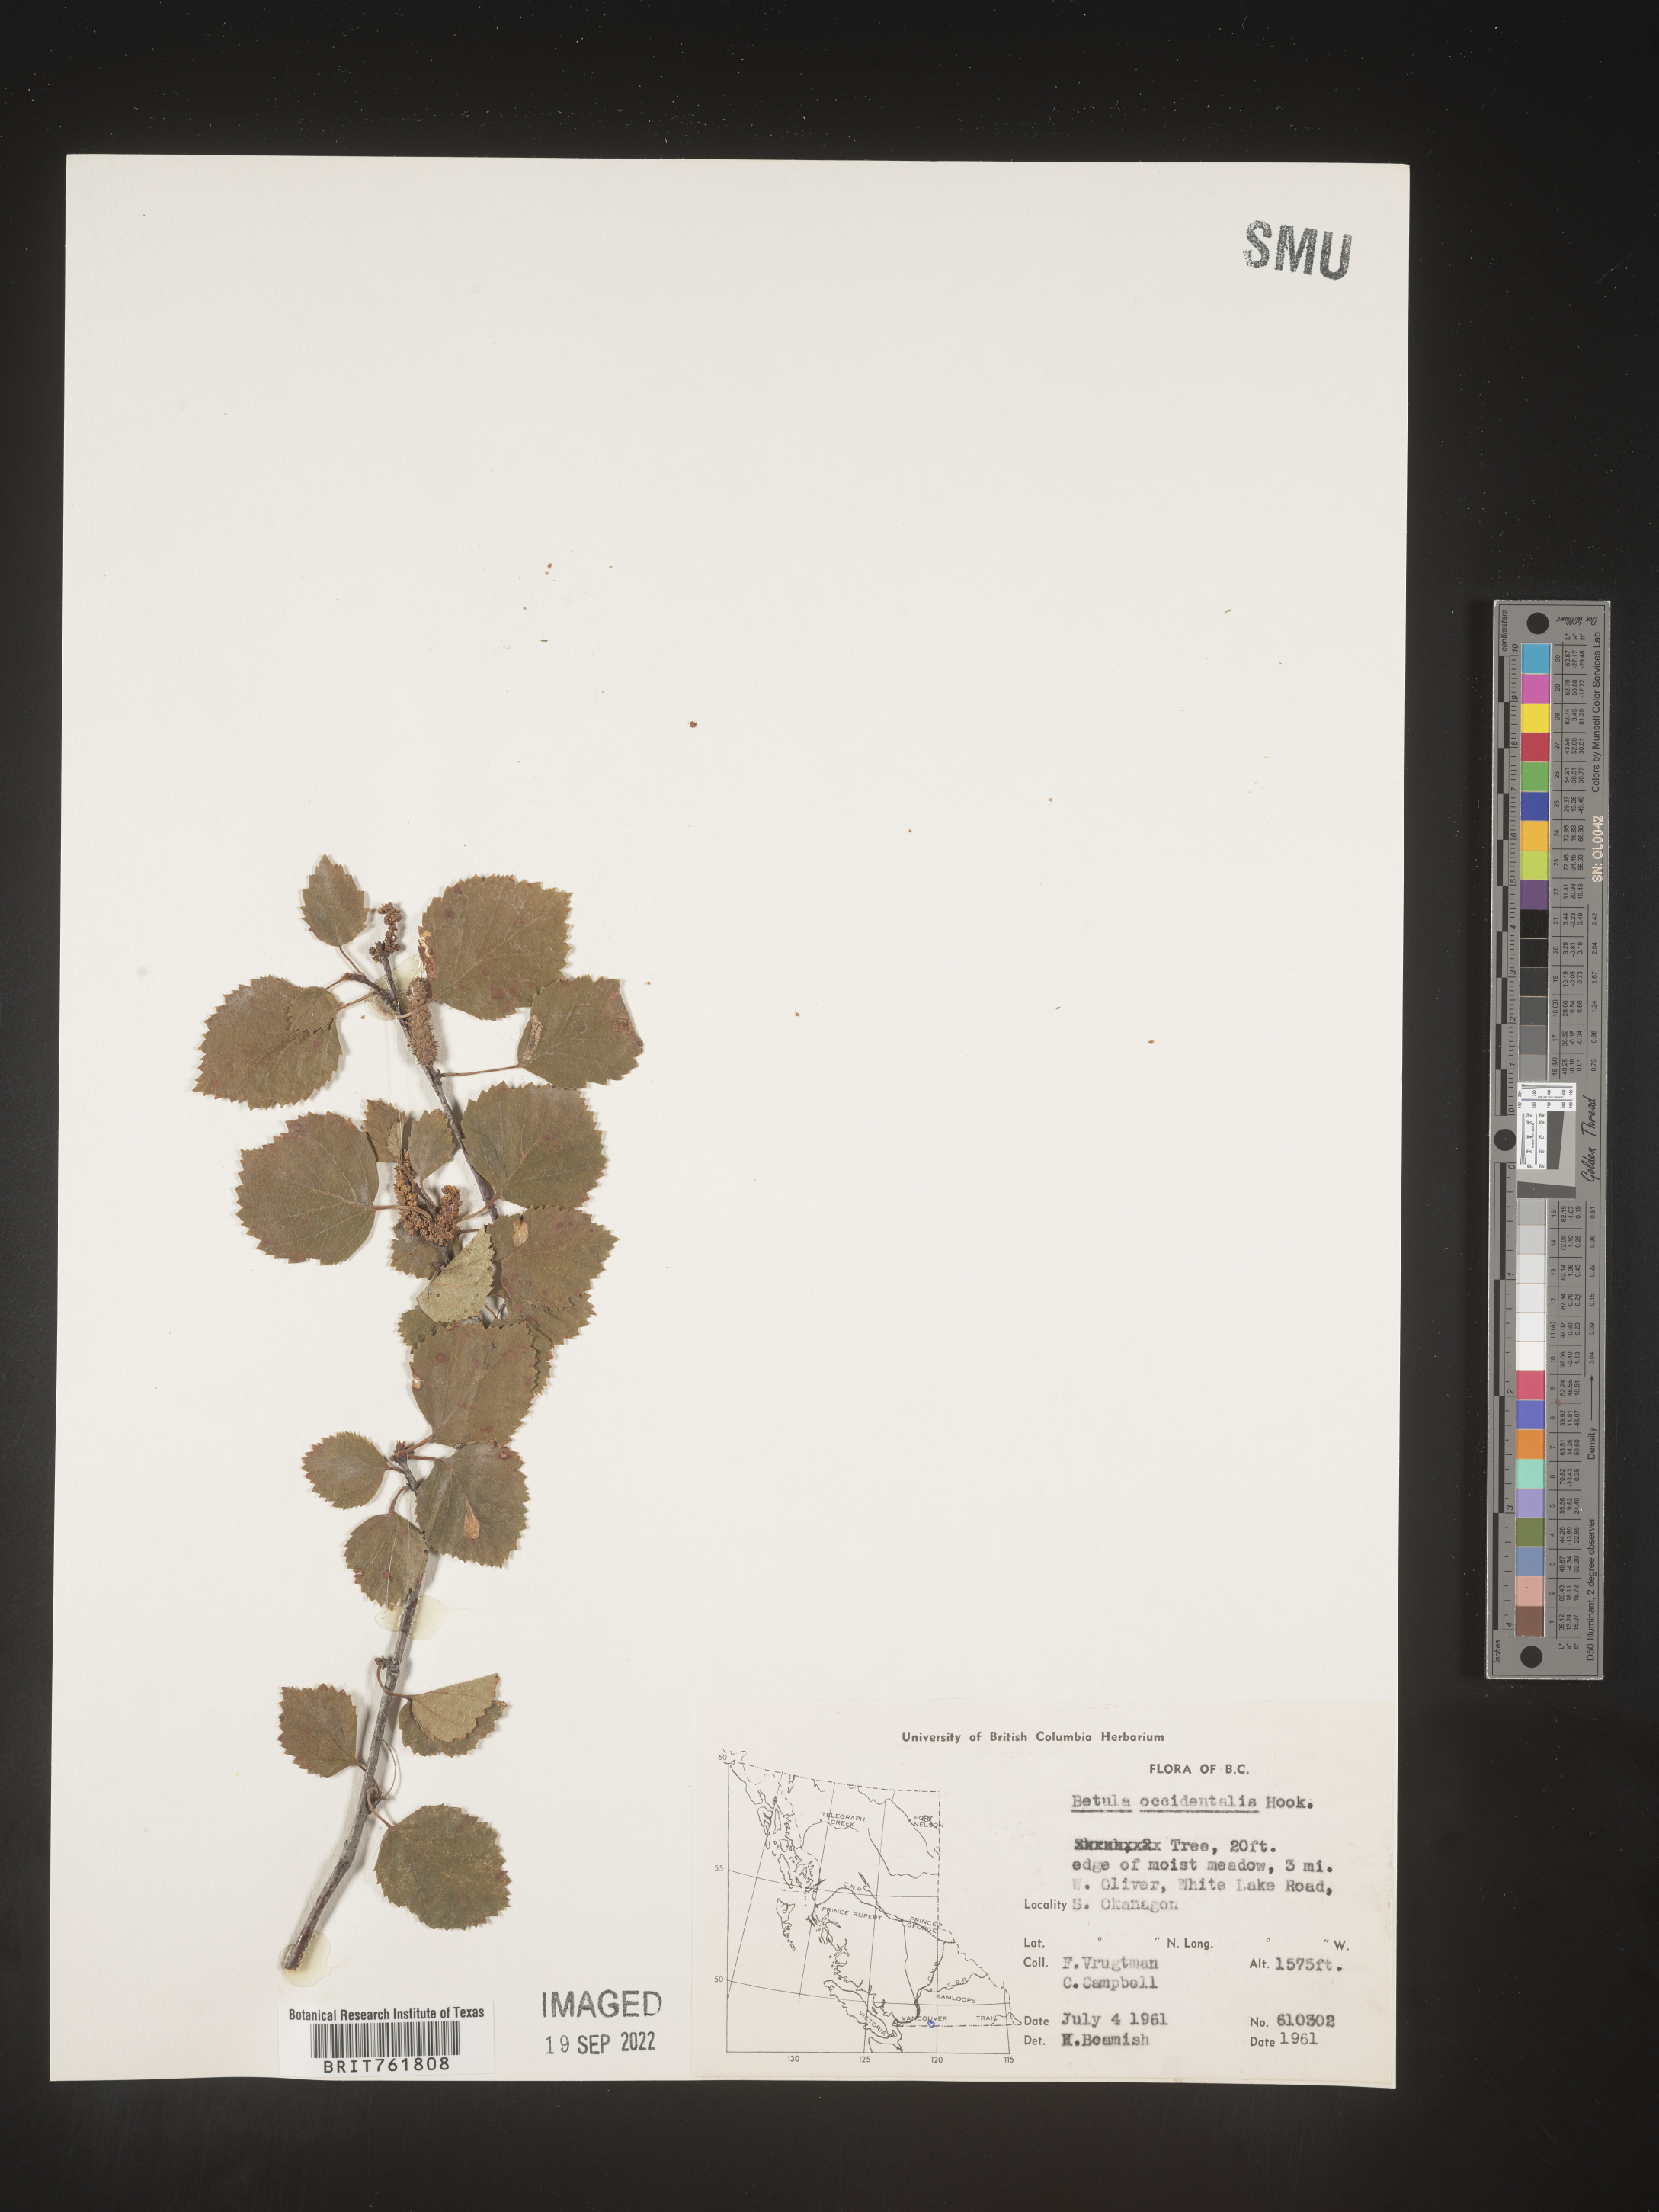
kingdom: Plantae
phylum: Tracheophyta
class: Magnoliopsida
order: Fagales
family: Betulaceae
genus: Betula
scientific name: Betula occidentalis
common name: River birch
